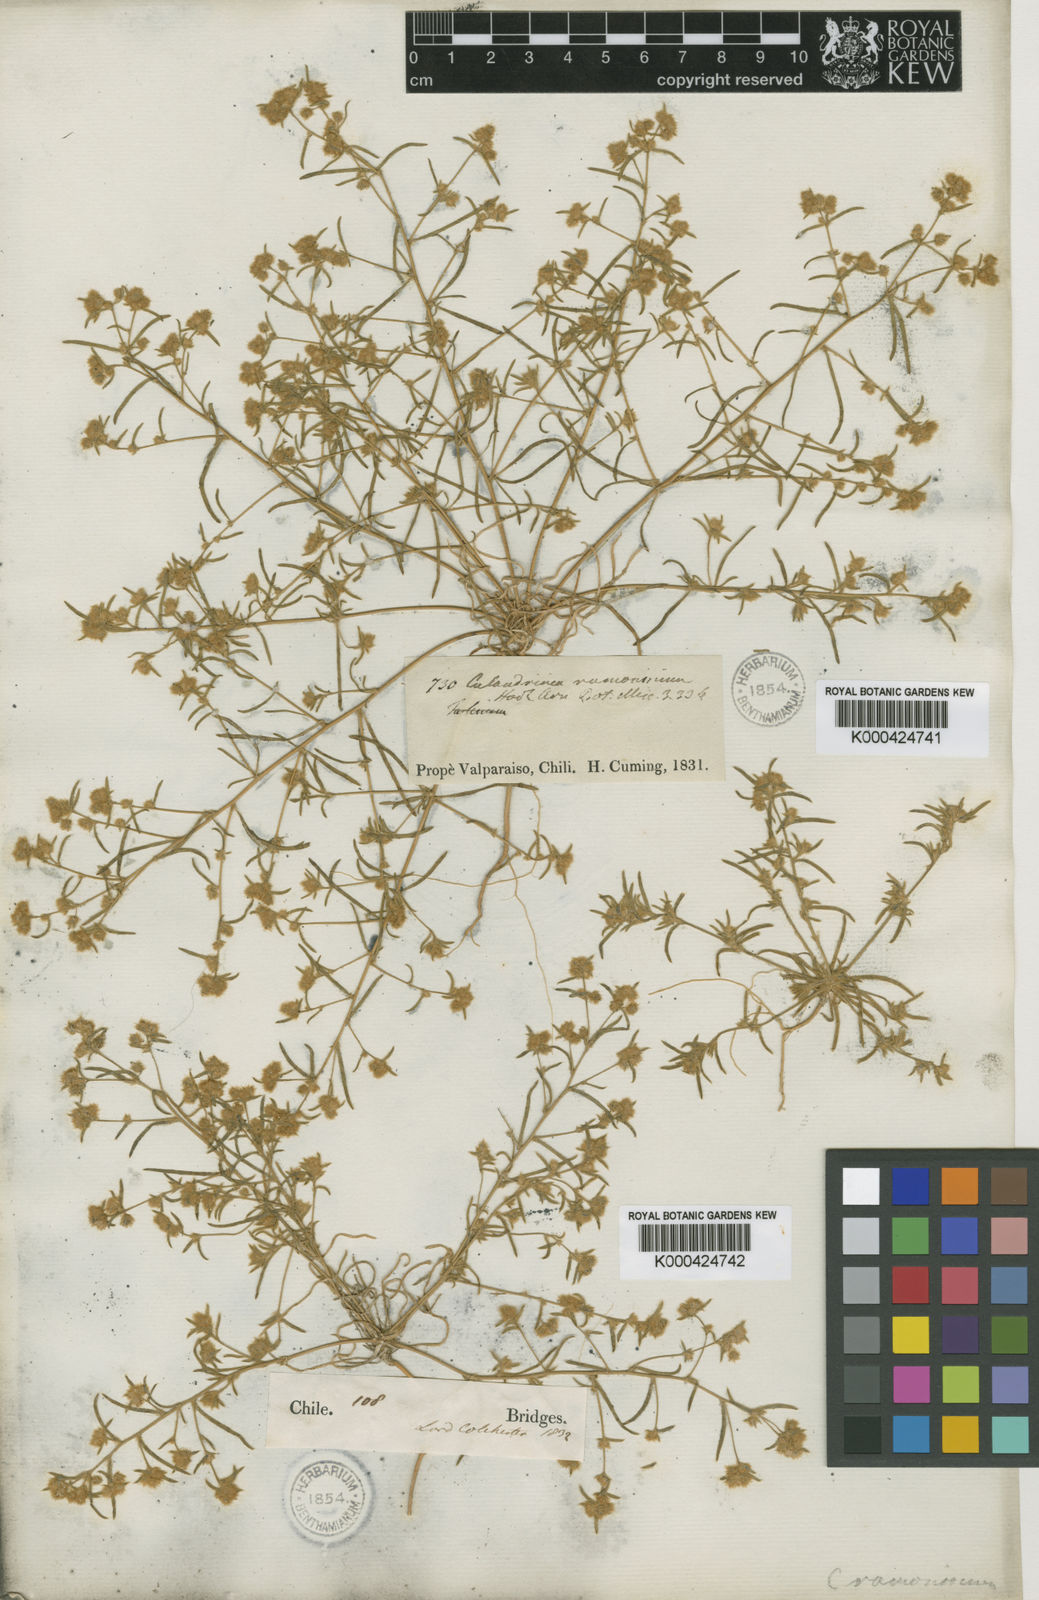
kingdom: Plantae
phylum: Tracheophyta
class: Magnoliopsida
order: Caryophyllales
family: Montiaceae
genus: Montiopsis
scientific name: Montiopsis ramosissima
